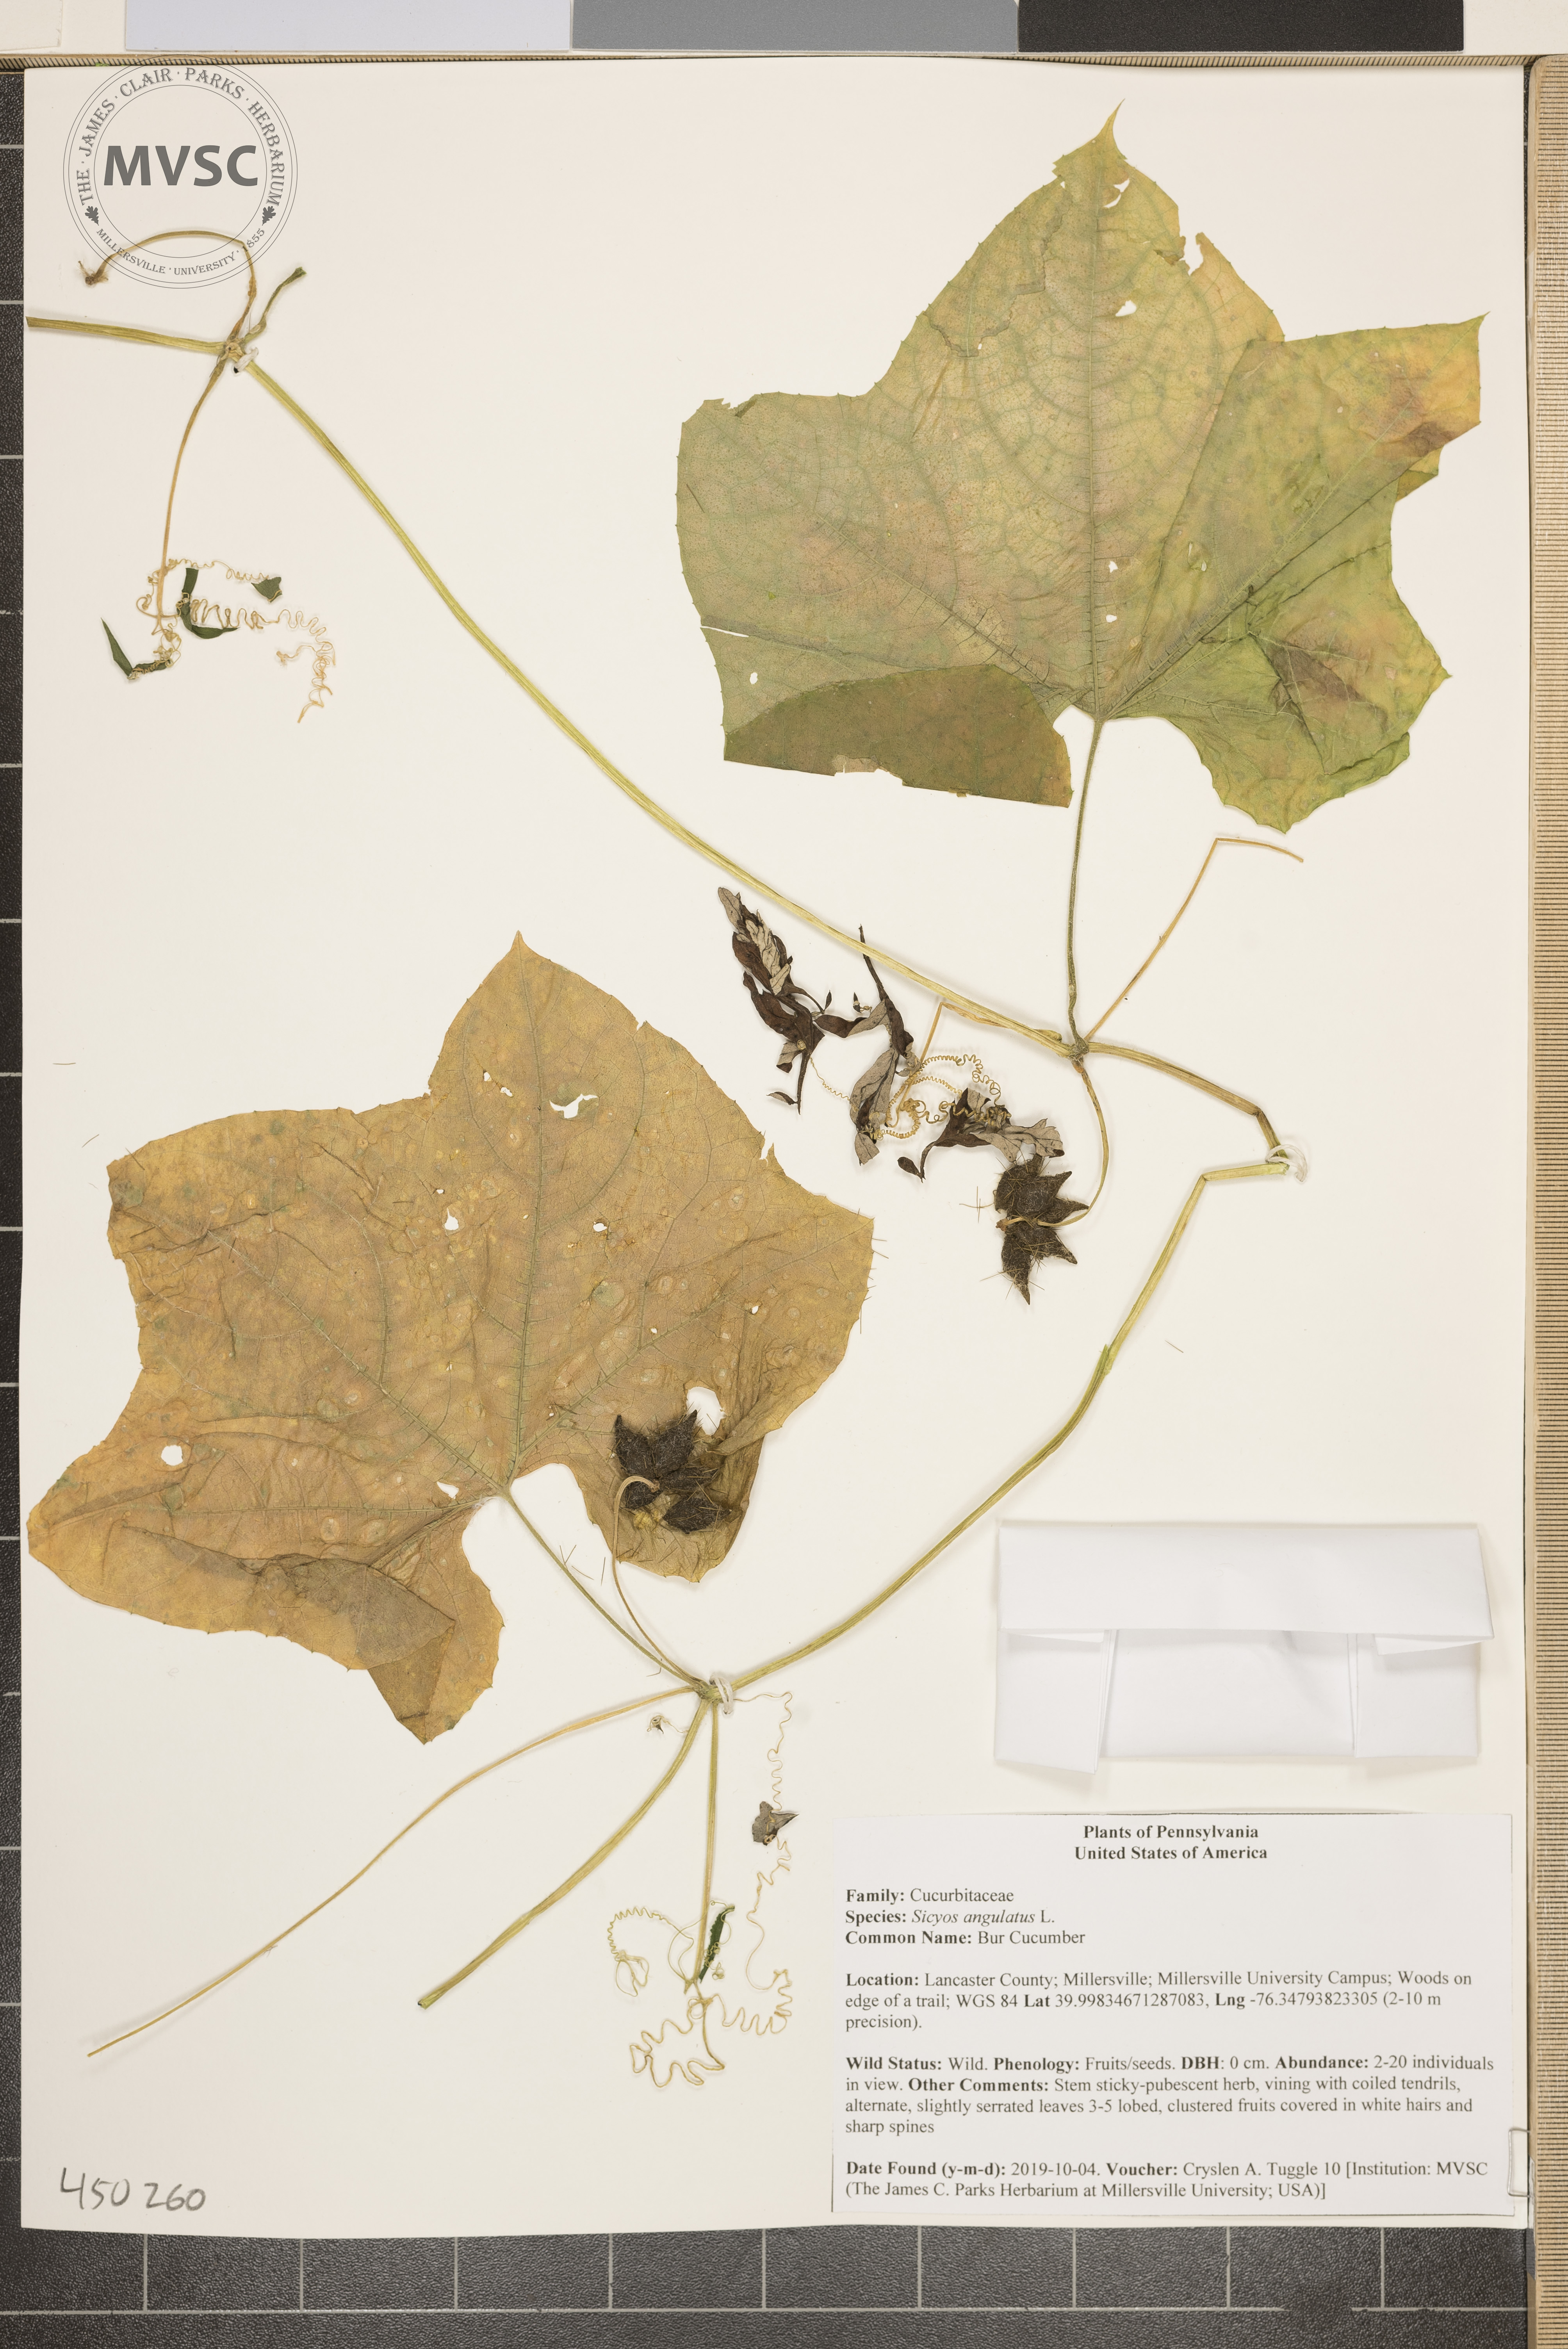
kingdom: Plantae
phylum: Tracheophyta
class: Magnoliopsida
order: Cucurbitales
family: Cucurbitaceae
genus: Sicyos
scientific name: Sicyos angulatus
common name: Bur Cucumber
